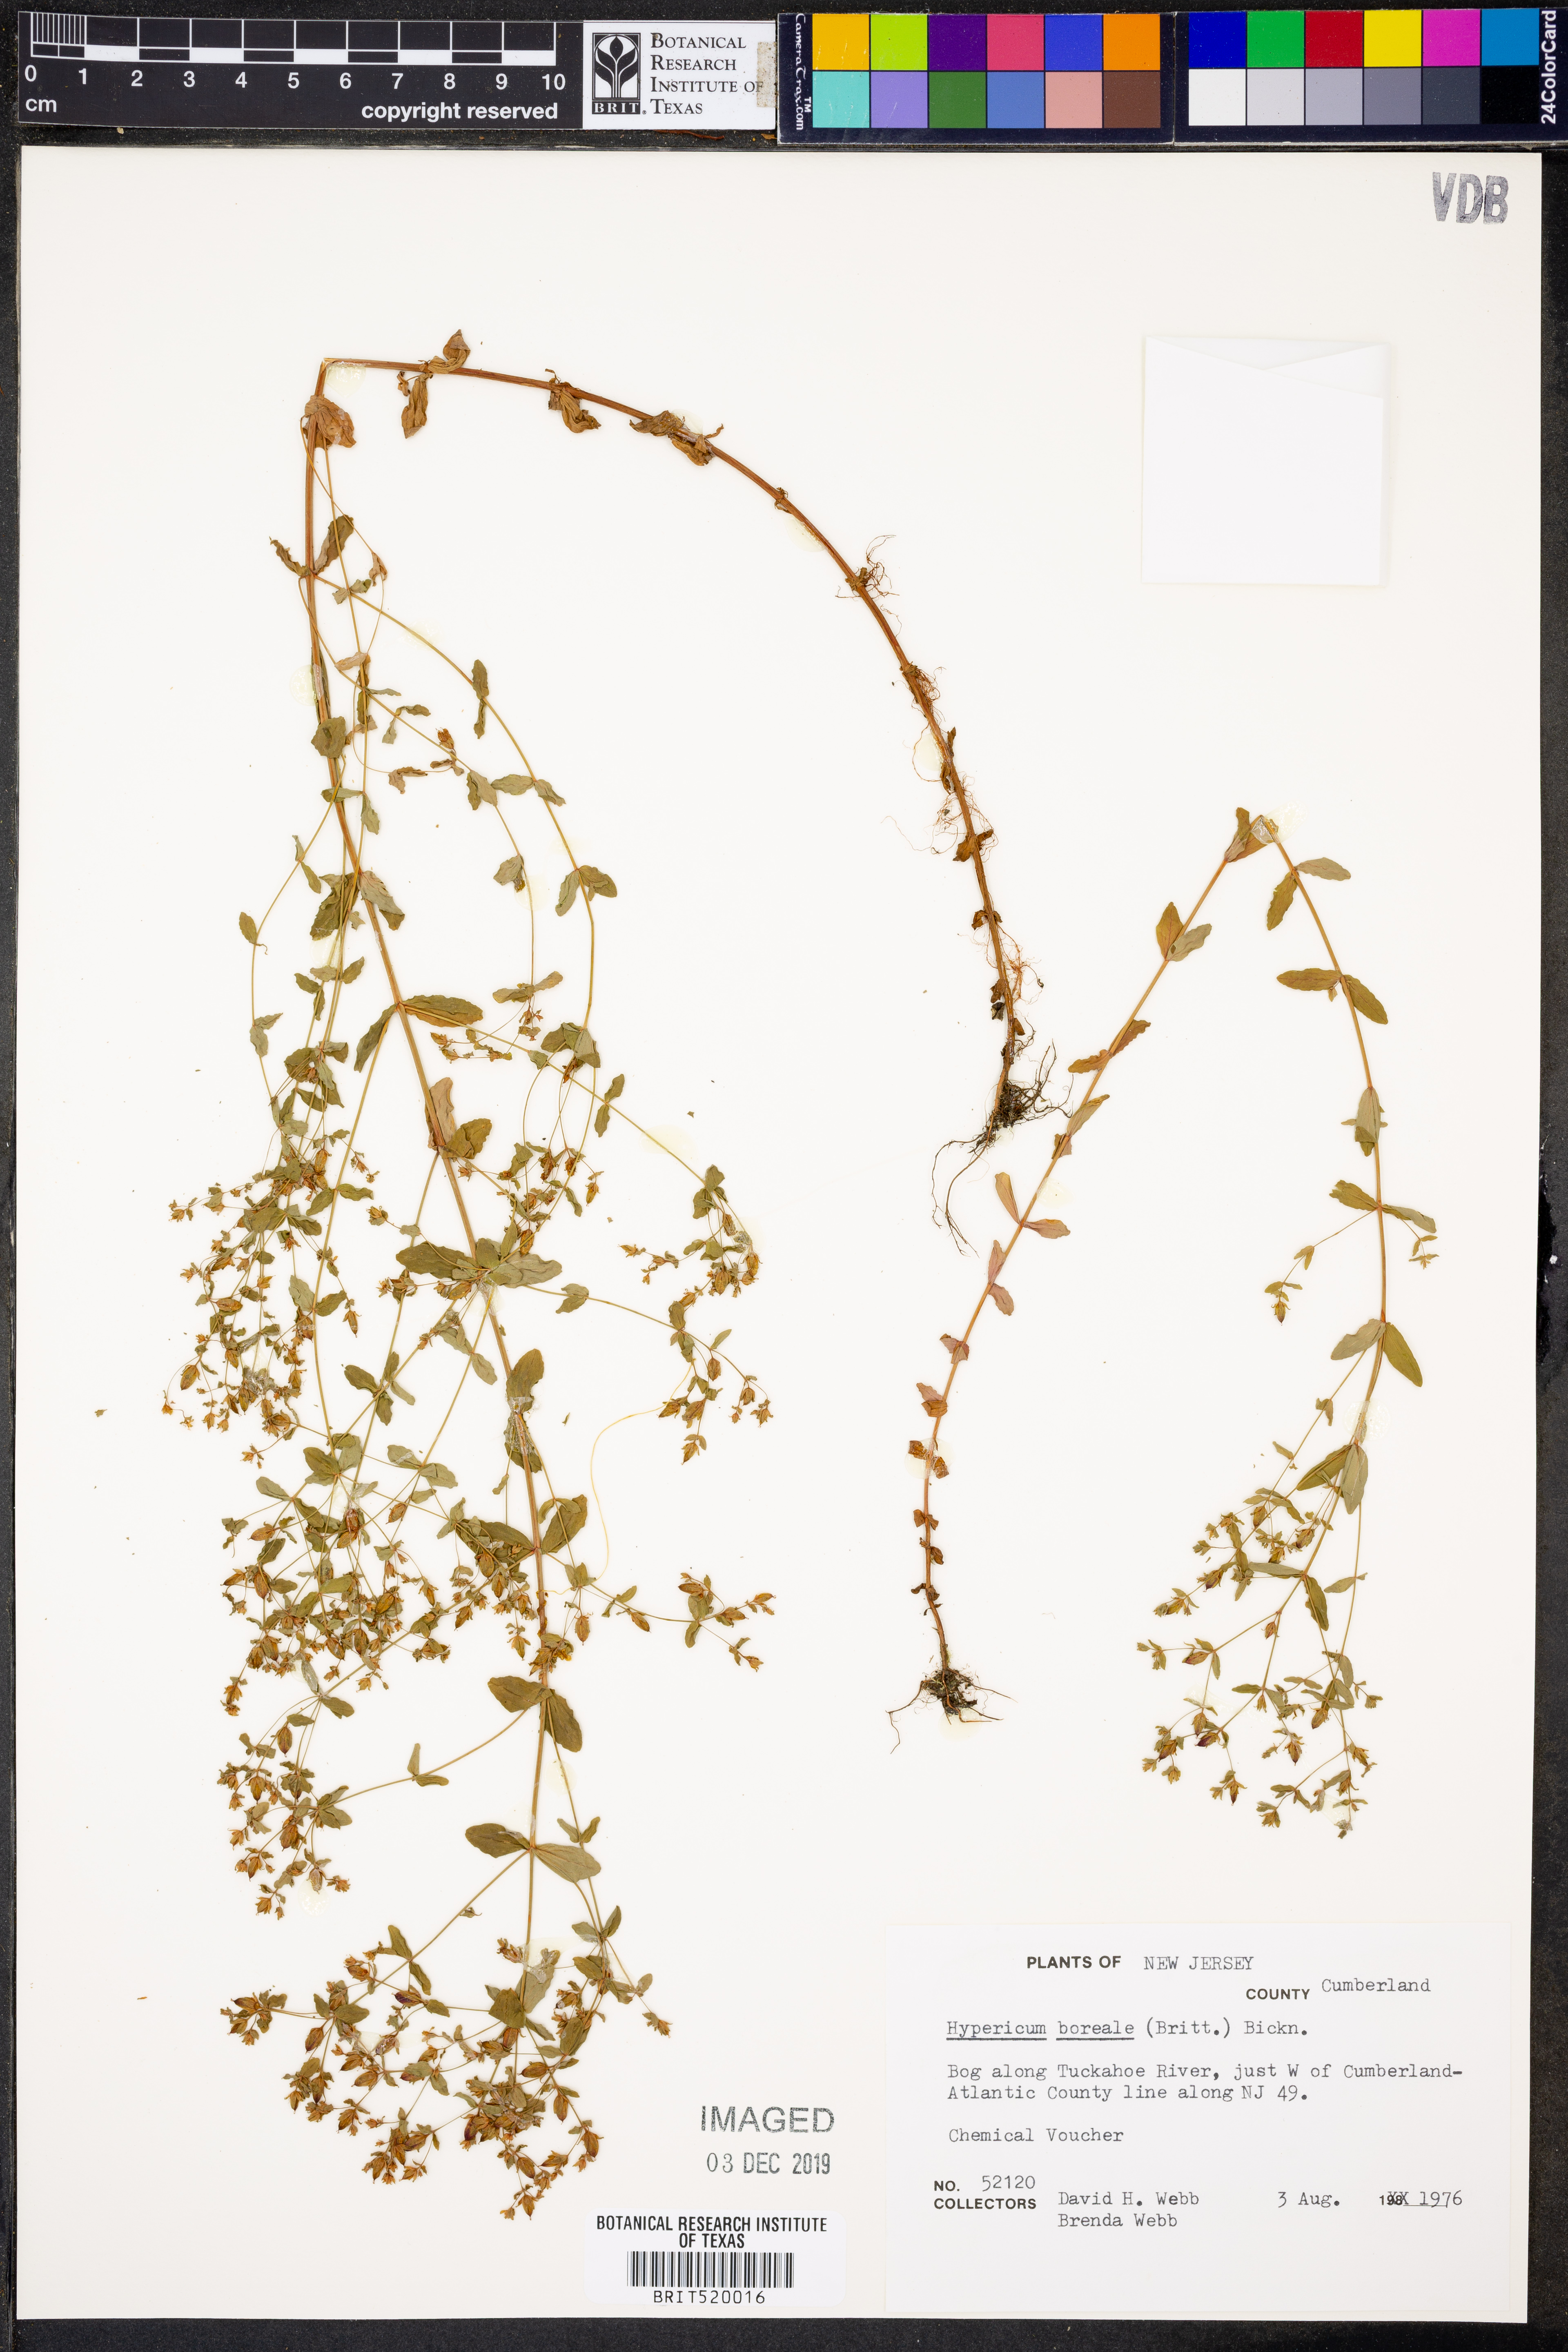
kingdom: Plantae
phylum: Tracheophyta
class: Magnoliopsida
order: Malpighiales
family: Hypericaceae
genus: Hypericum
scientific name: Hypericum boreale
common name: Northern bog st. john's-wort
